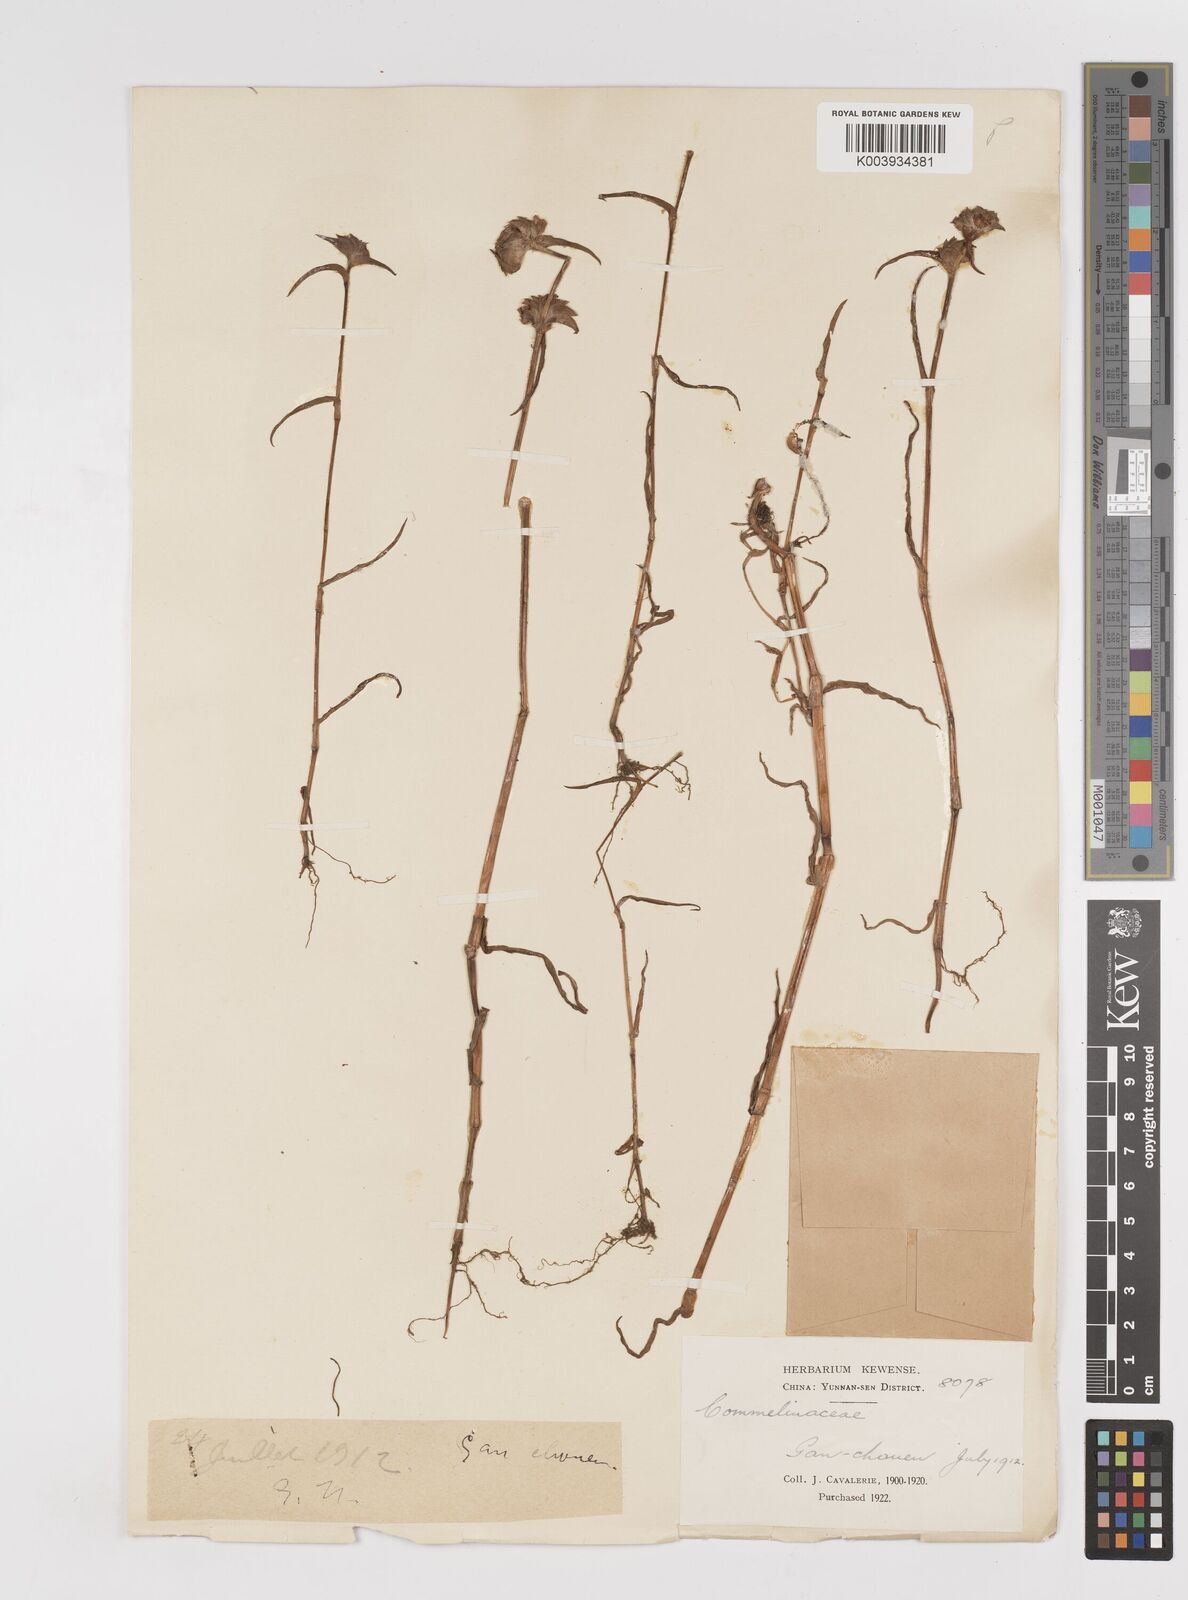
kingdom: Plantae
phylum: Tracheophyta
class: Liliopsida
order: Commelinales
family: Commelinaceae
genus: Cyanotis
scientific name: Cyanotis
